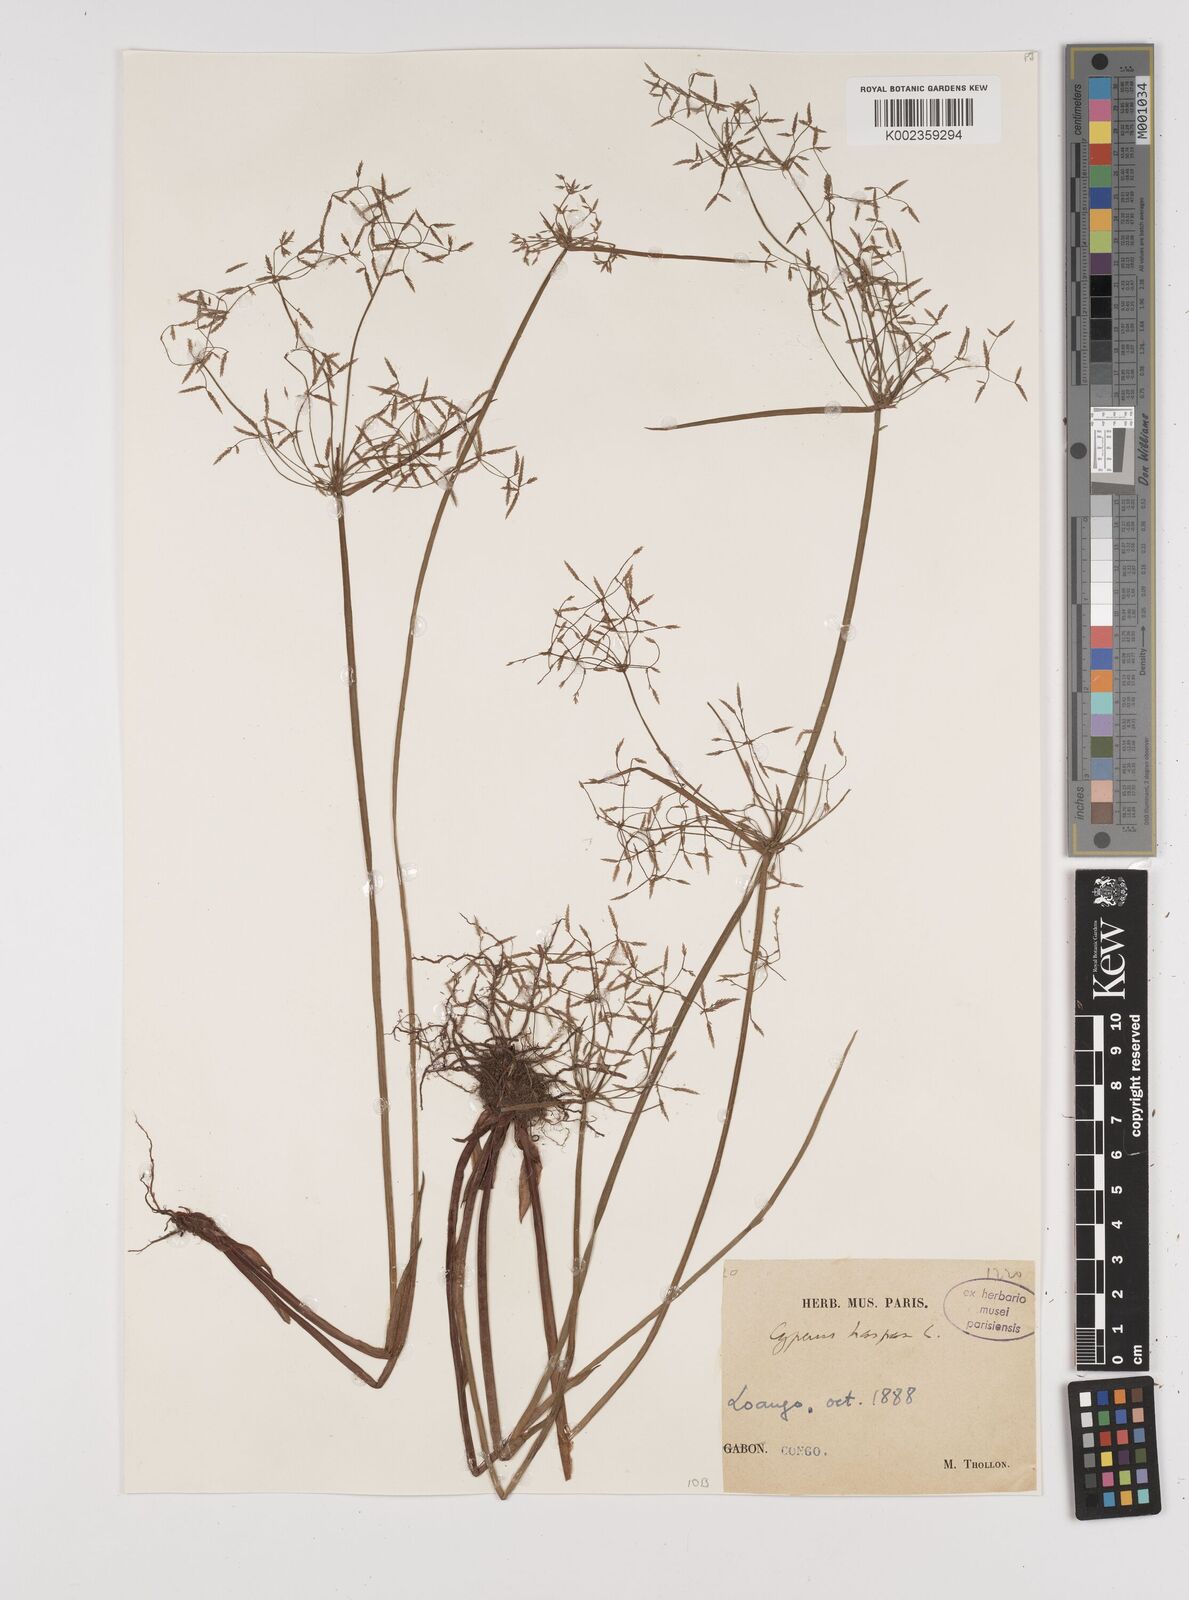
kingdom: Plantae
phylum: Tracheophyta
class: Liliopsida
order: Poales
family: Cyperaceae
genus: Cyperus
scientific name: Cyperus haspan
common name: Haspan flatsedge
